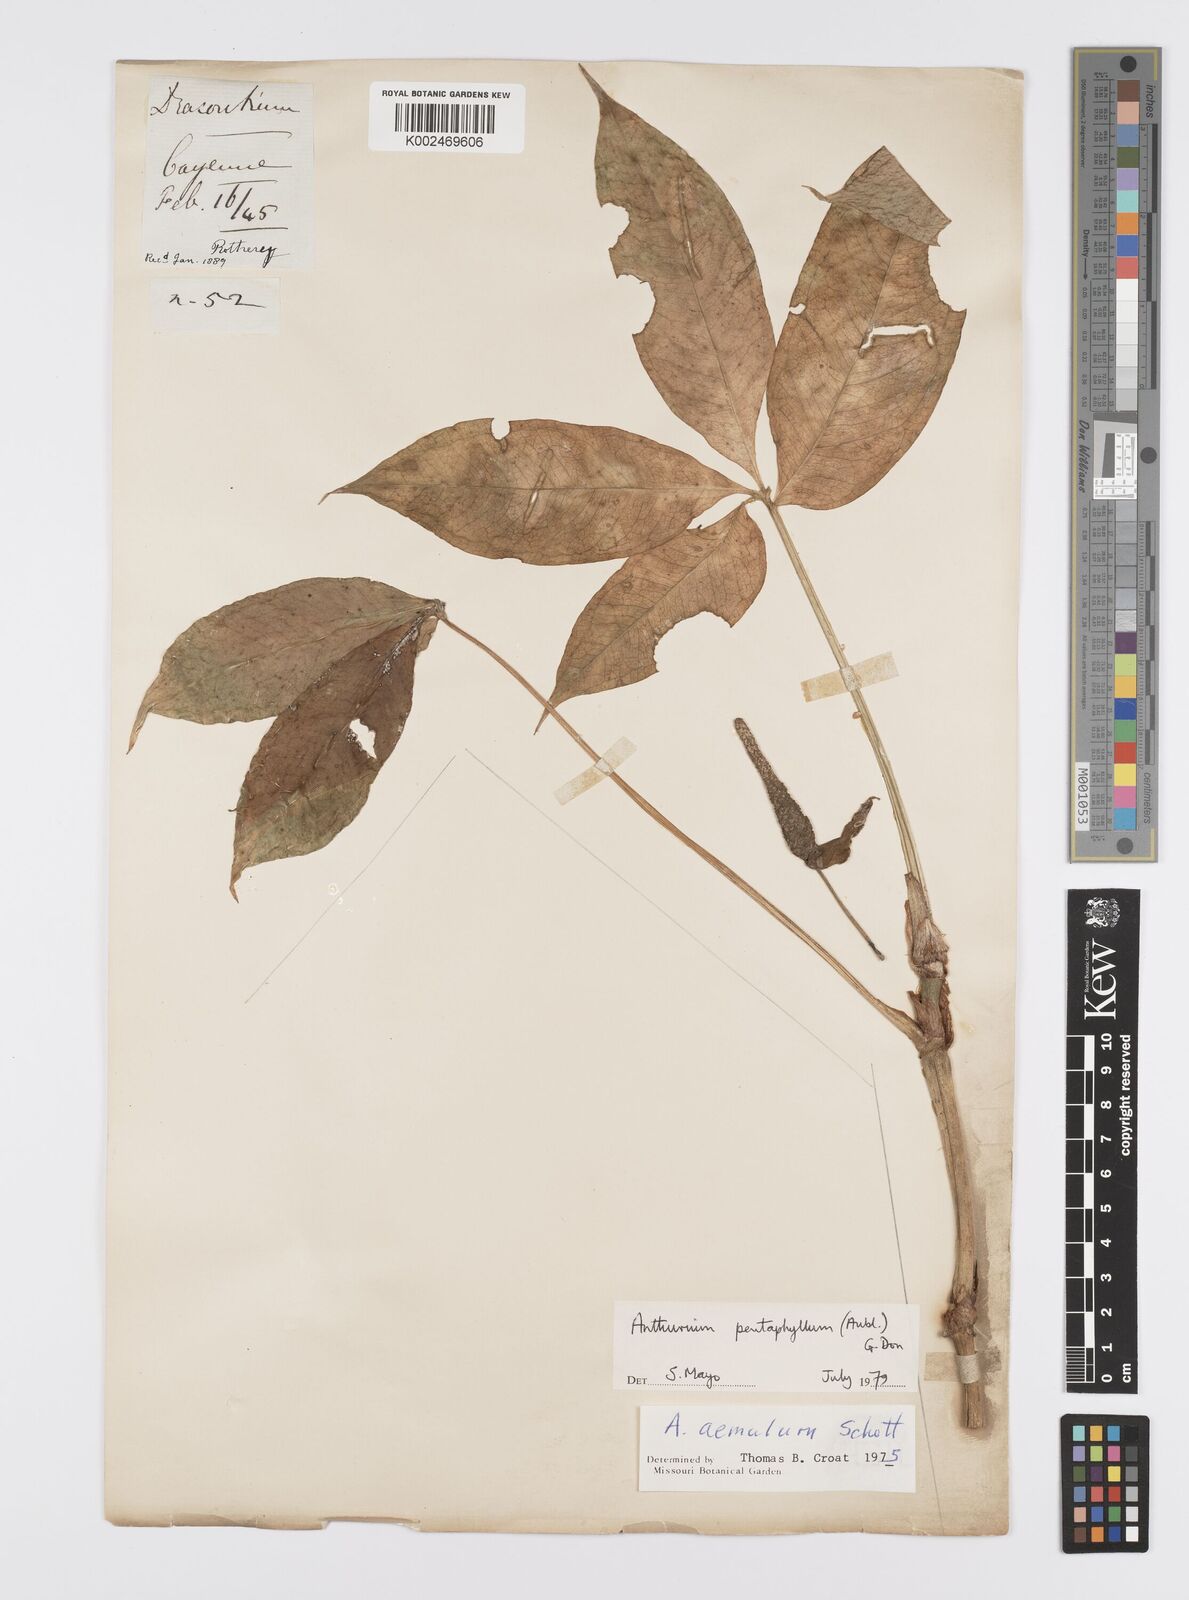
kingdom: Plantae
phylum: Tracheophyta
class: Liliopsida
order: Alismatales
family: Araceae
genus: Anthurium
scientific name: Anthurium pentaphyllum
